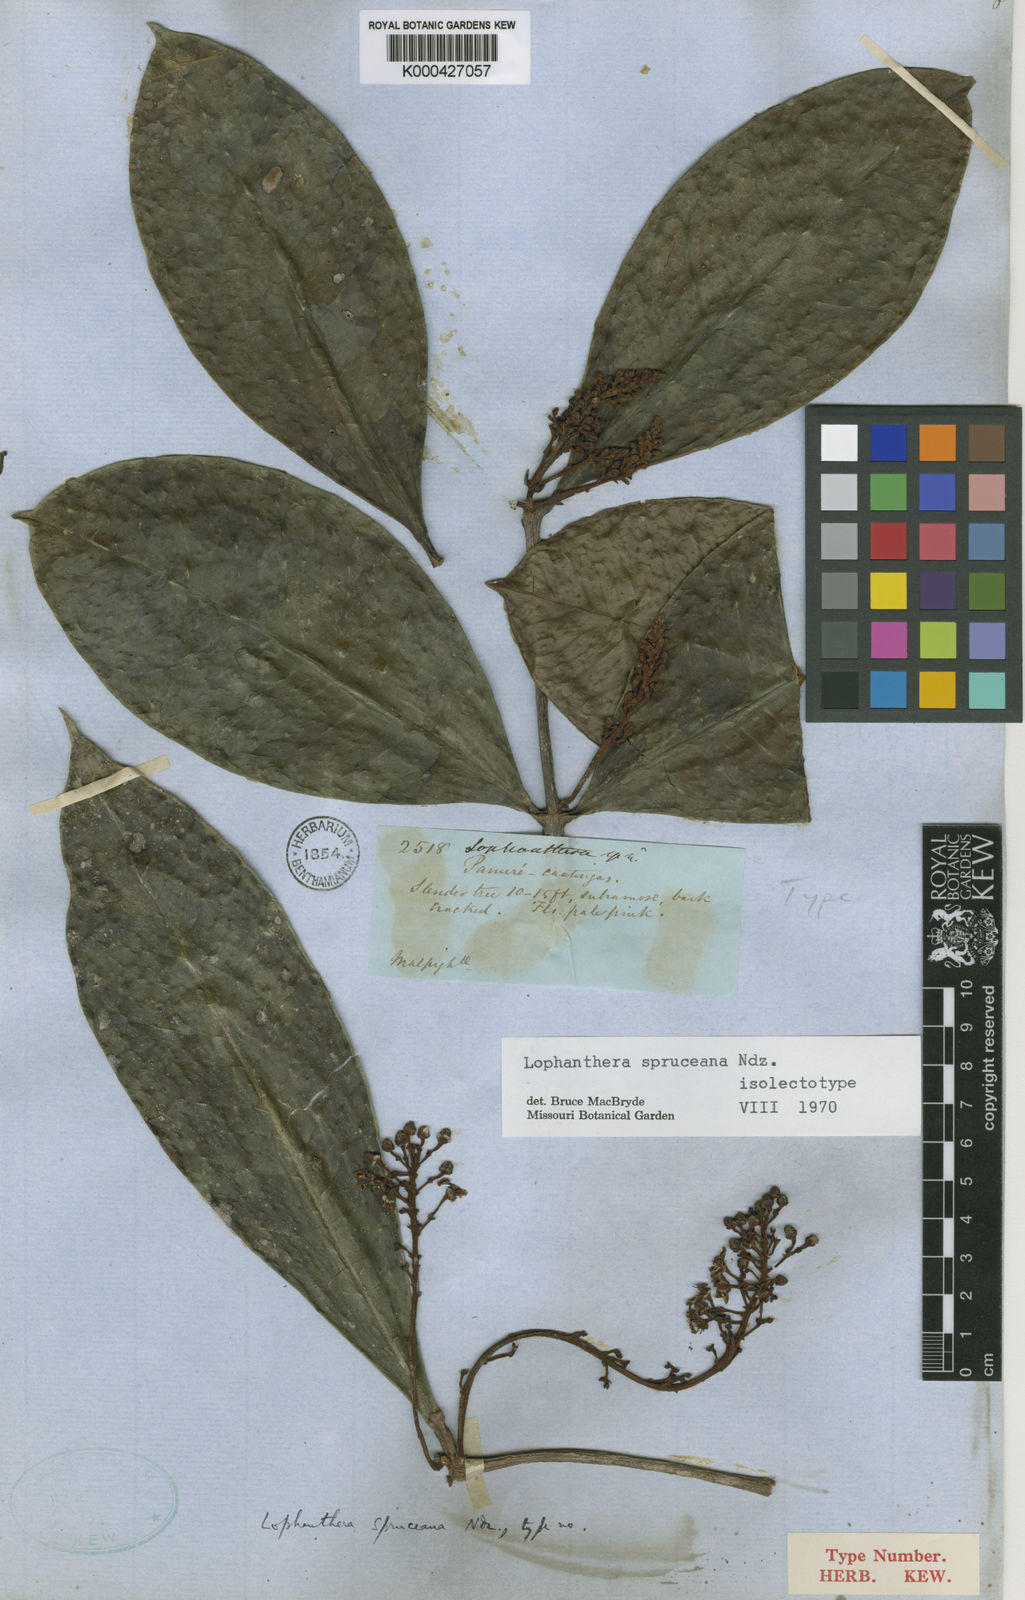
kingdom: Plantae
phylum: Tracheophyta
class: Magnoliopsida
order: Malpighiales
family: Malpighiaceae
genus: Andersoniodoxa
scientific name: Andersoniodoxa spruceana
